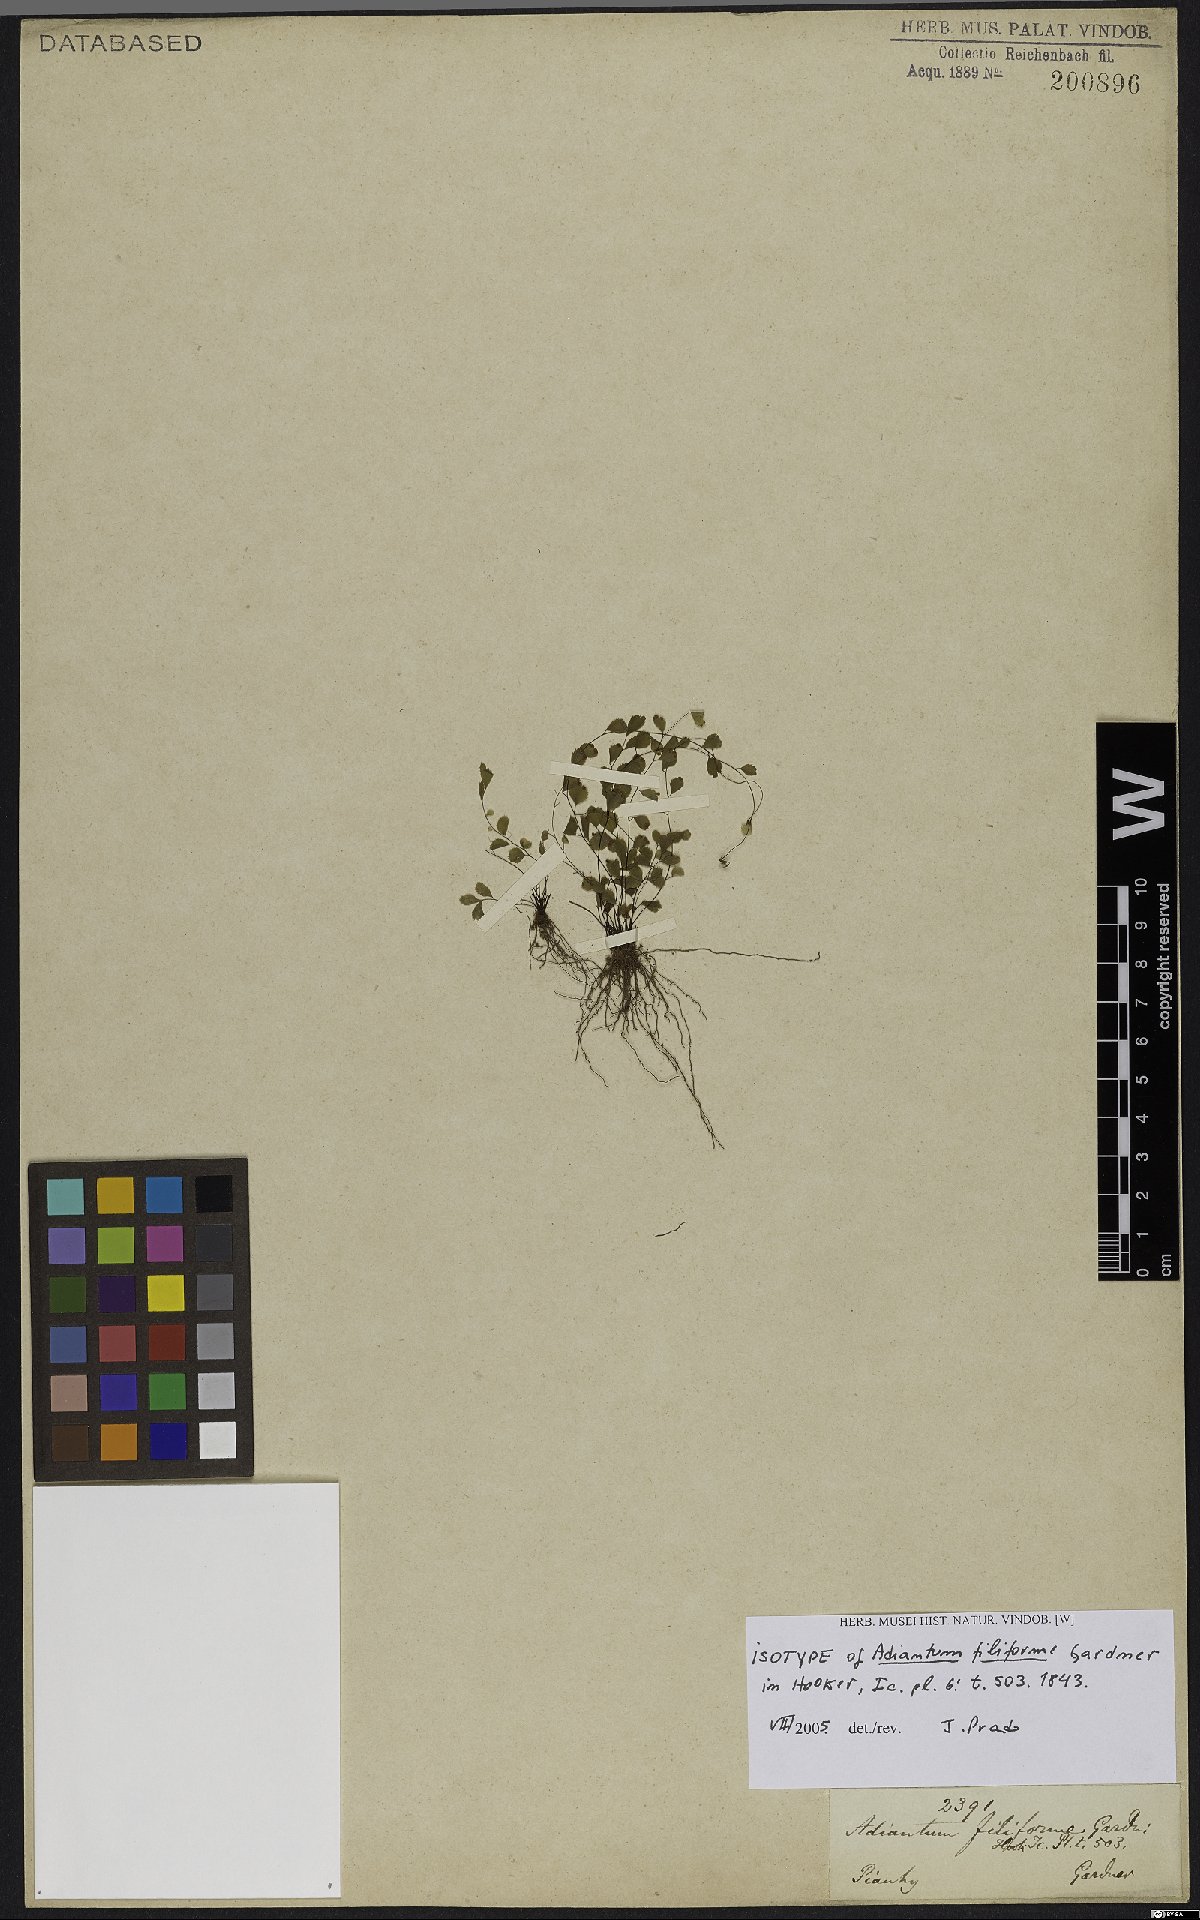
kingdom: Plantae
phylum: Tracheophyta
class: Polypodiopsida
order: Polypodiales
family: Pteridaceae
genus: Adiantum
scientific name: Adiantum filiforme
